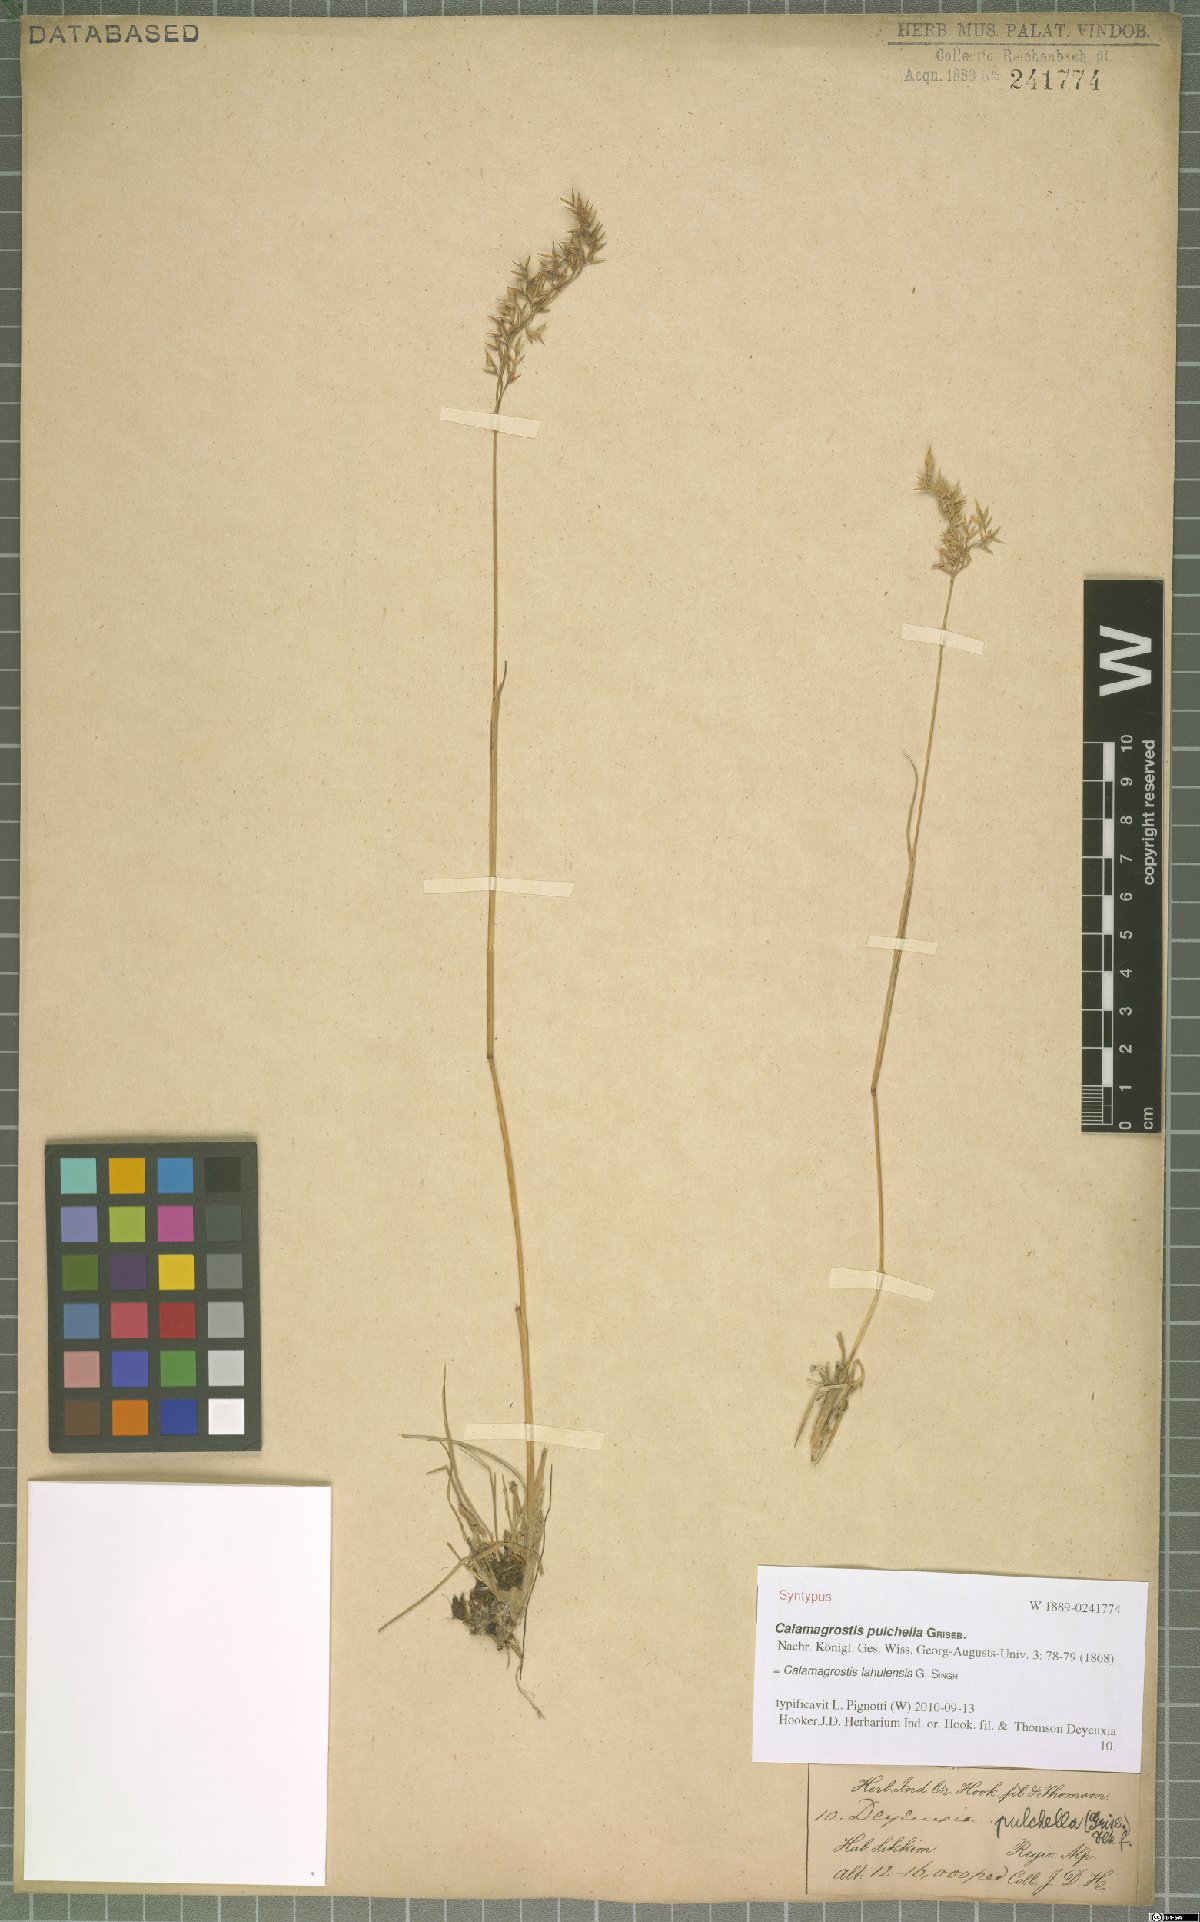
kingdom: Plantae
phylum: Tracheophyta
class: Liliopsida
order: Poales
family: Poaceae
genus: Calamagrostis
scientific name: Calamagrostis lahulensis
